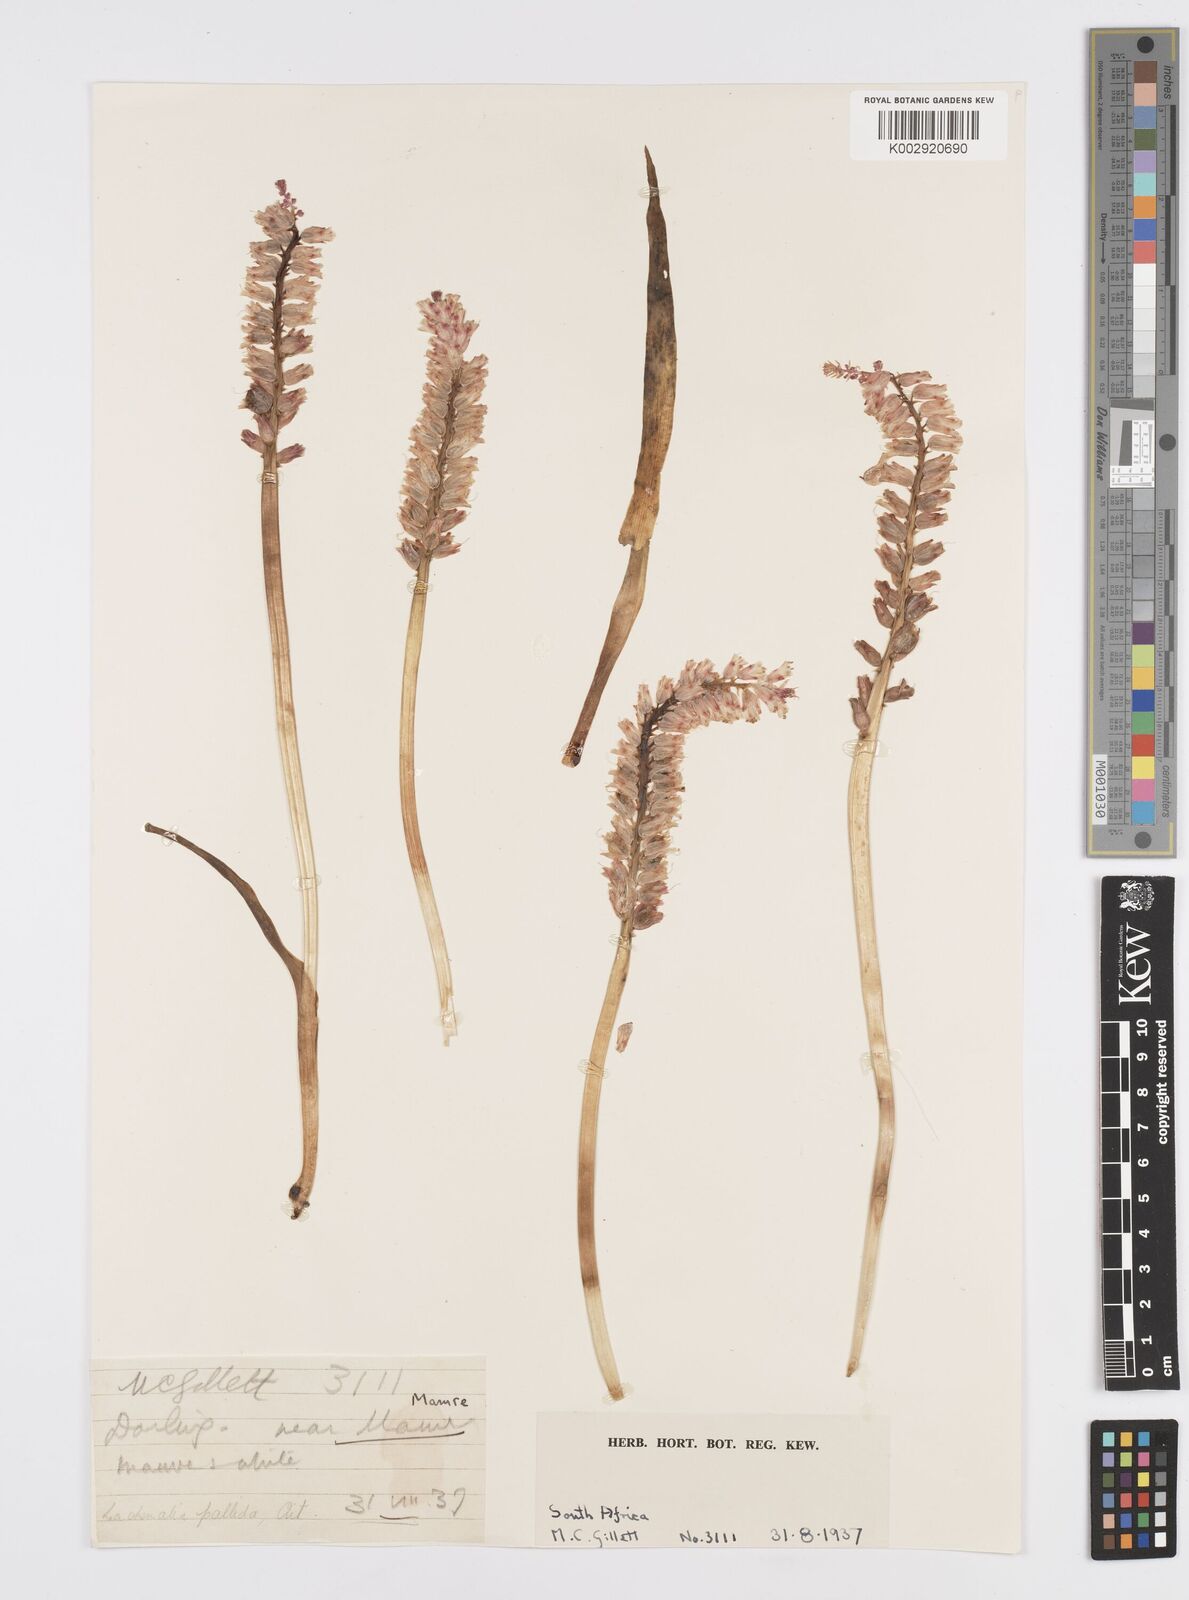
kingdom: Plantae
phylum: Tracheophyta
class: Liliopsida
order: Asparagales
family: Asparagaceae
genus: Lachenalia
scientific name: Lachenalia pallida
